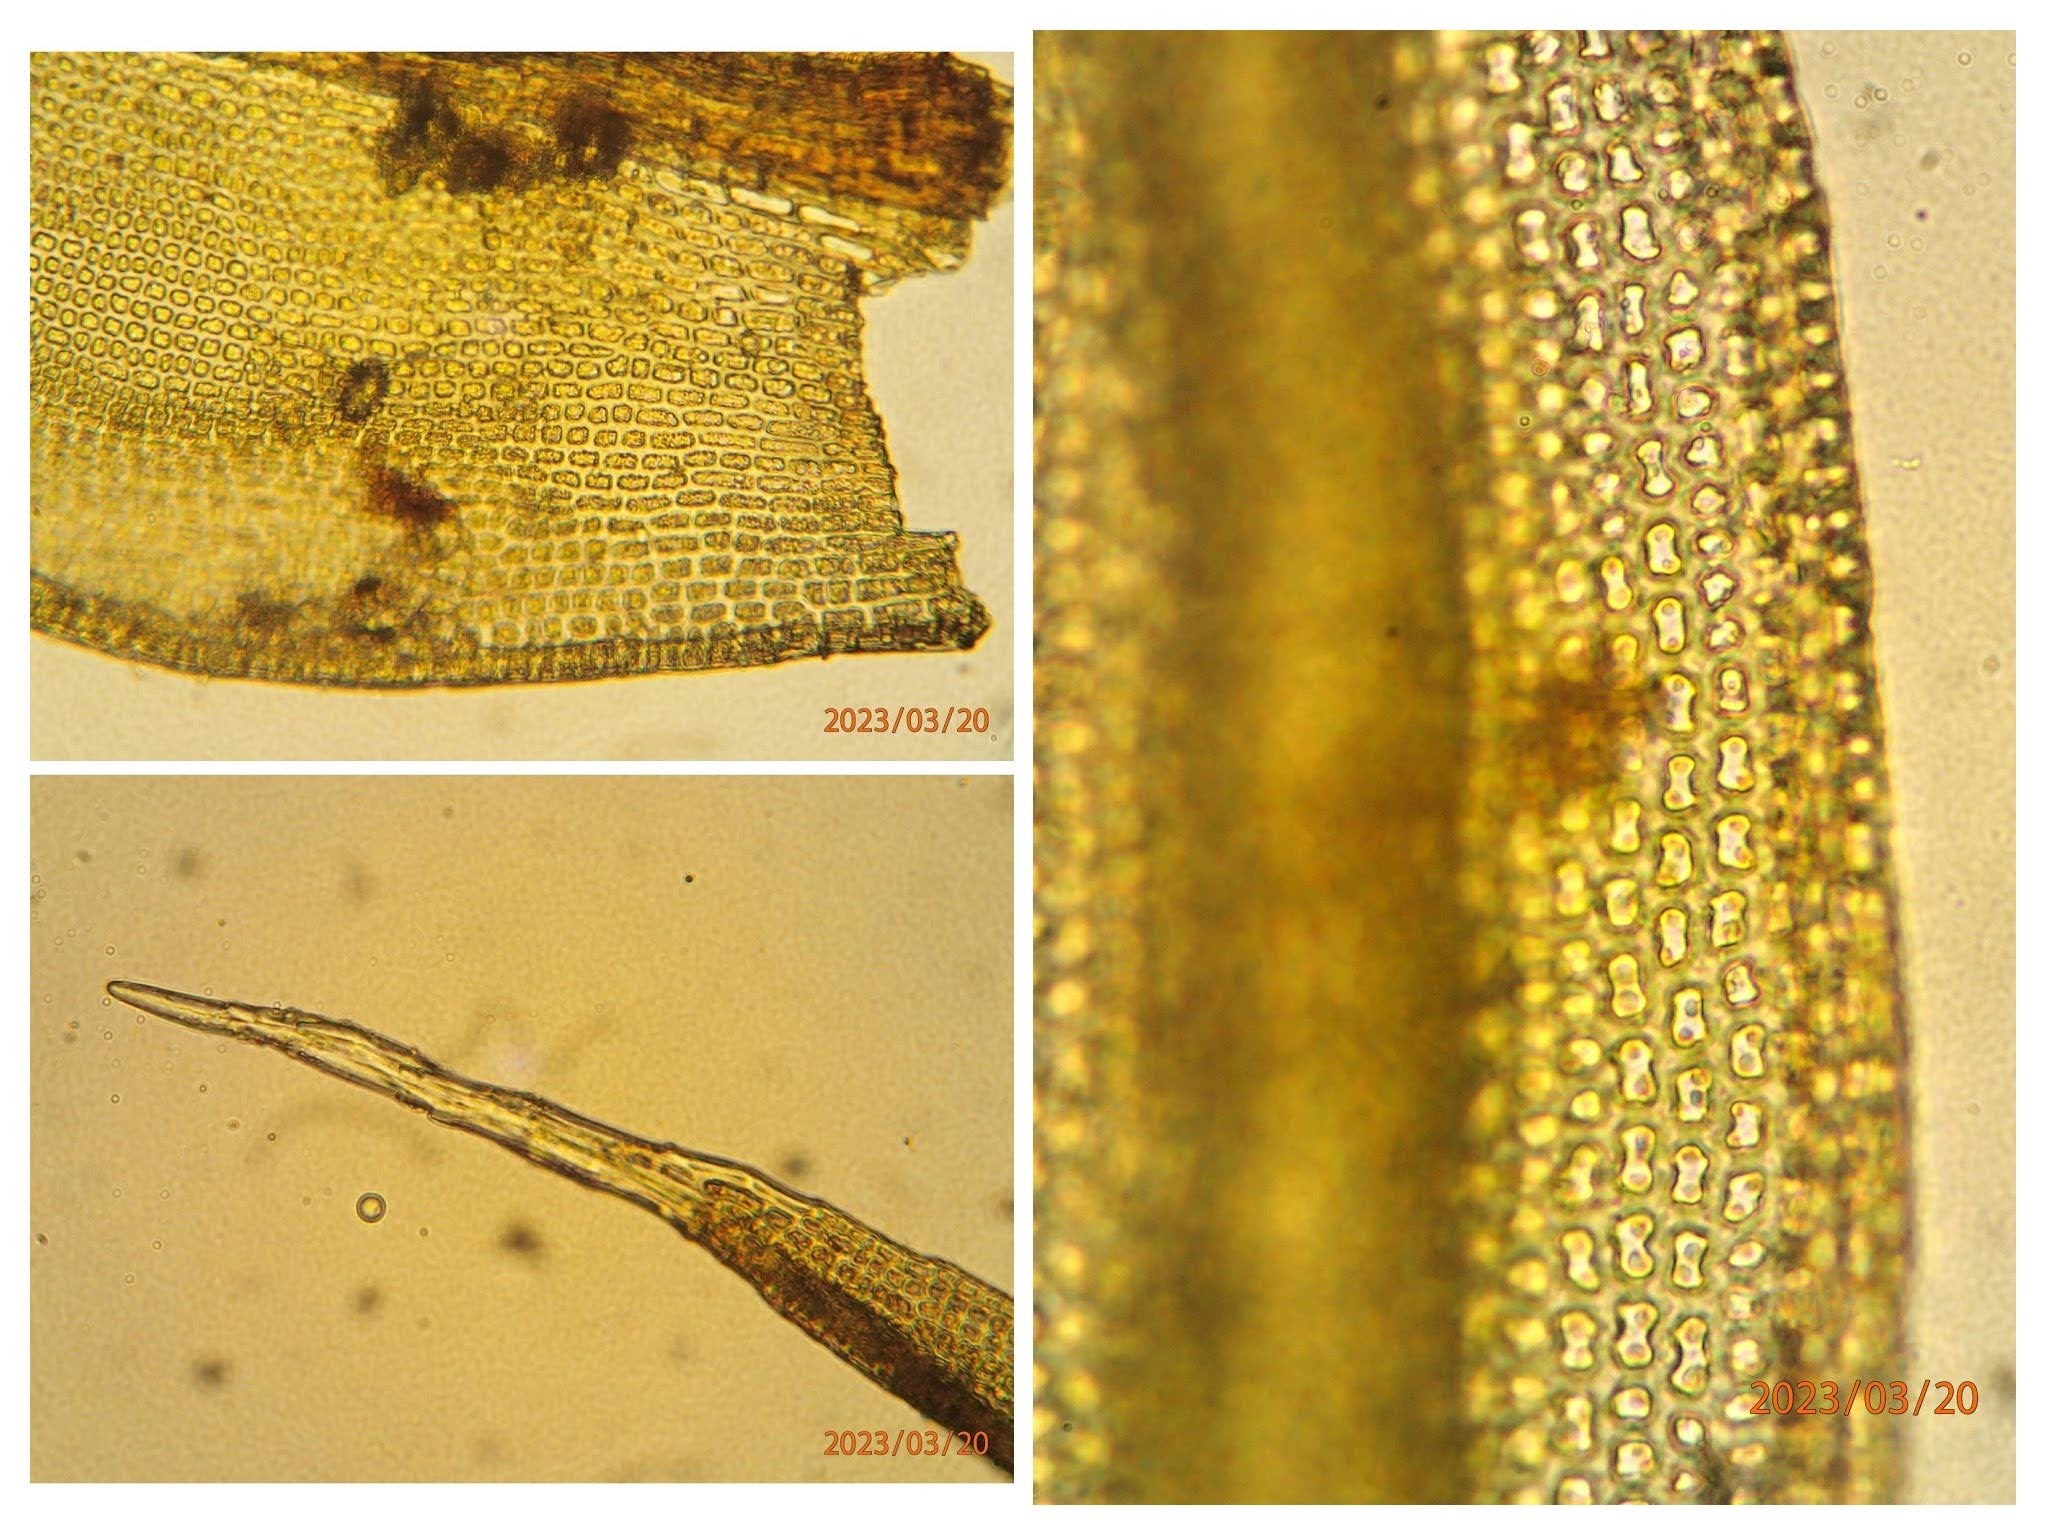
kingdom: Plantae
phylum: Bryophyta
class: Bryopsida
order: Grimmiales
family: Grimmiaceae
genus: Grimmia
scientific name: Grimmia hartmanii
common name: Hartmans gråmos
